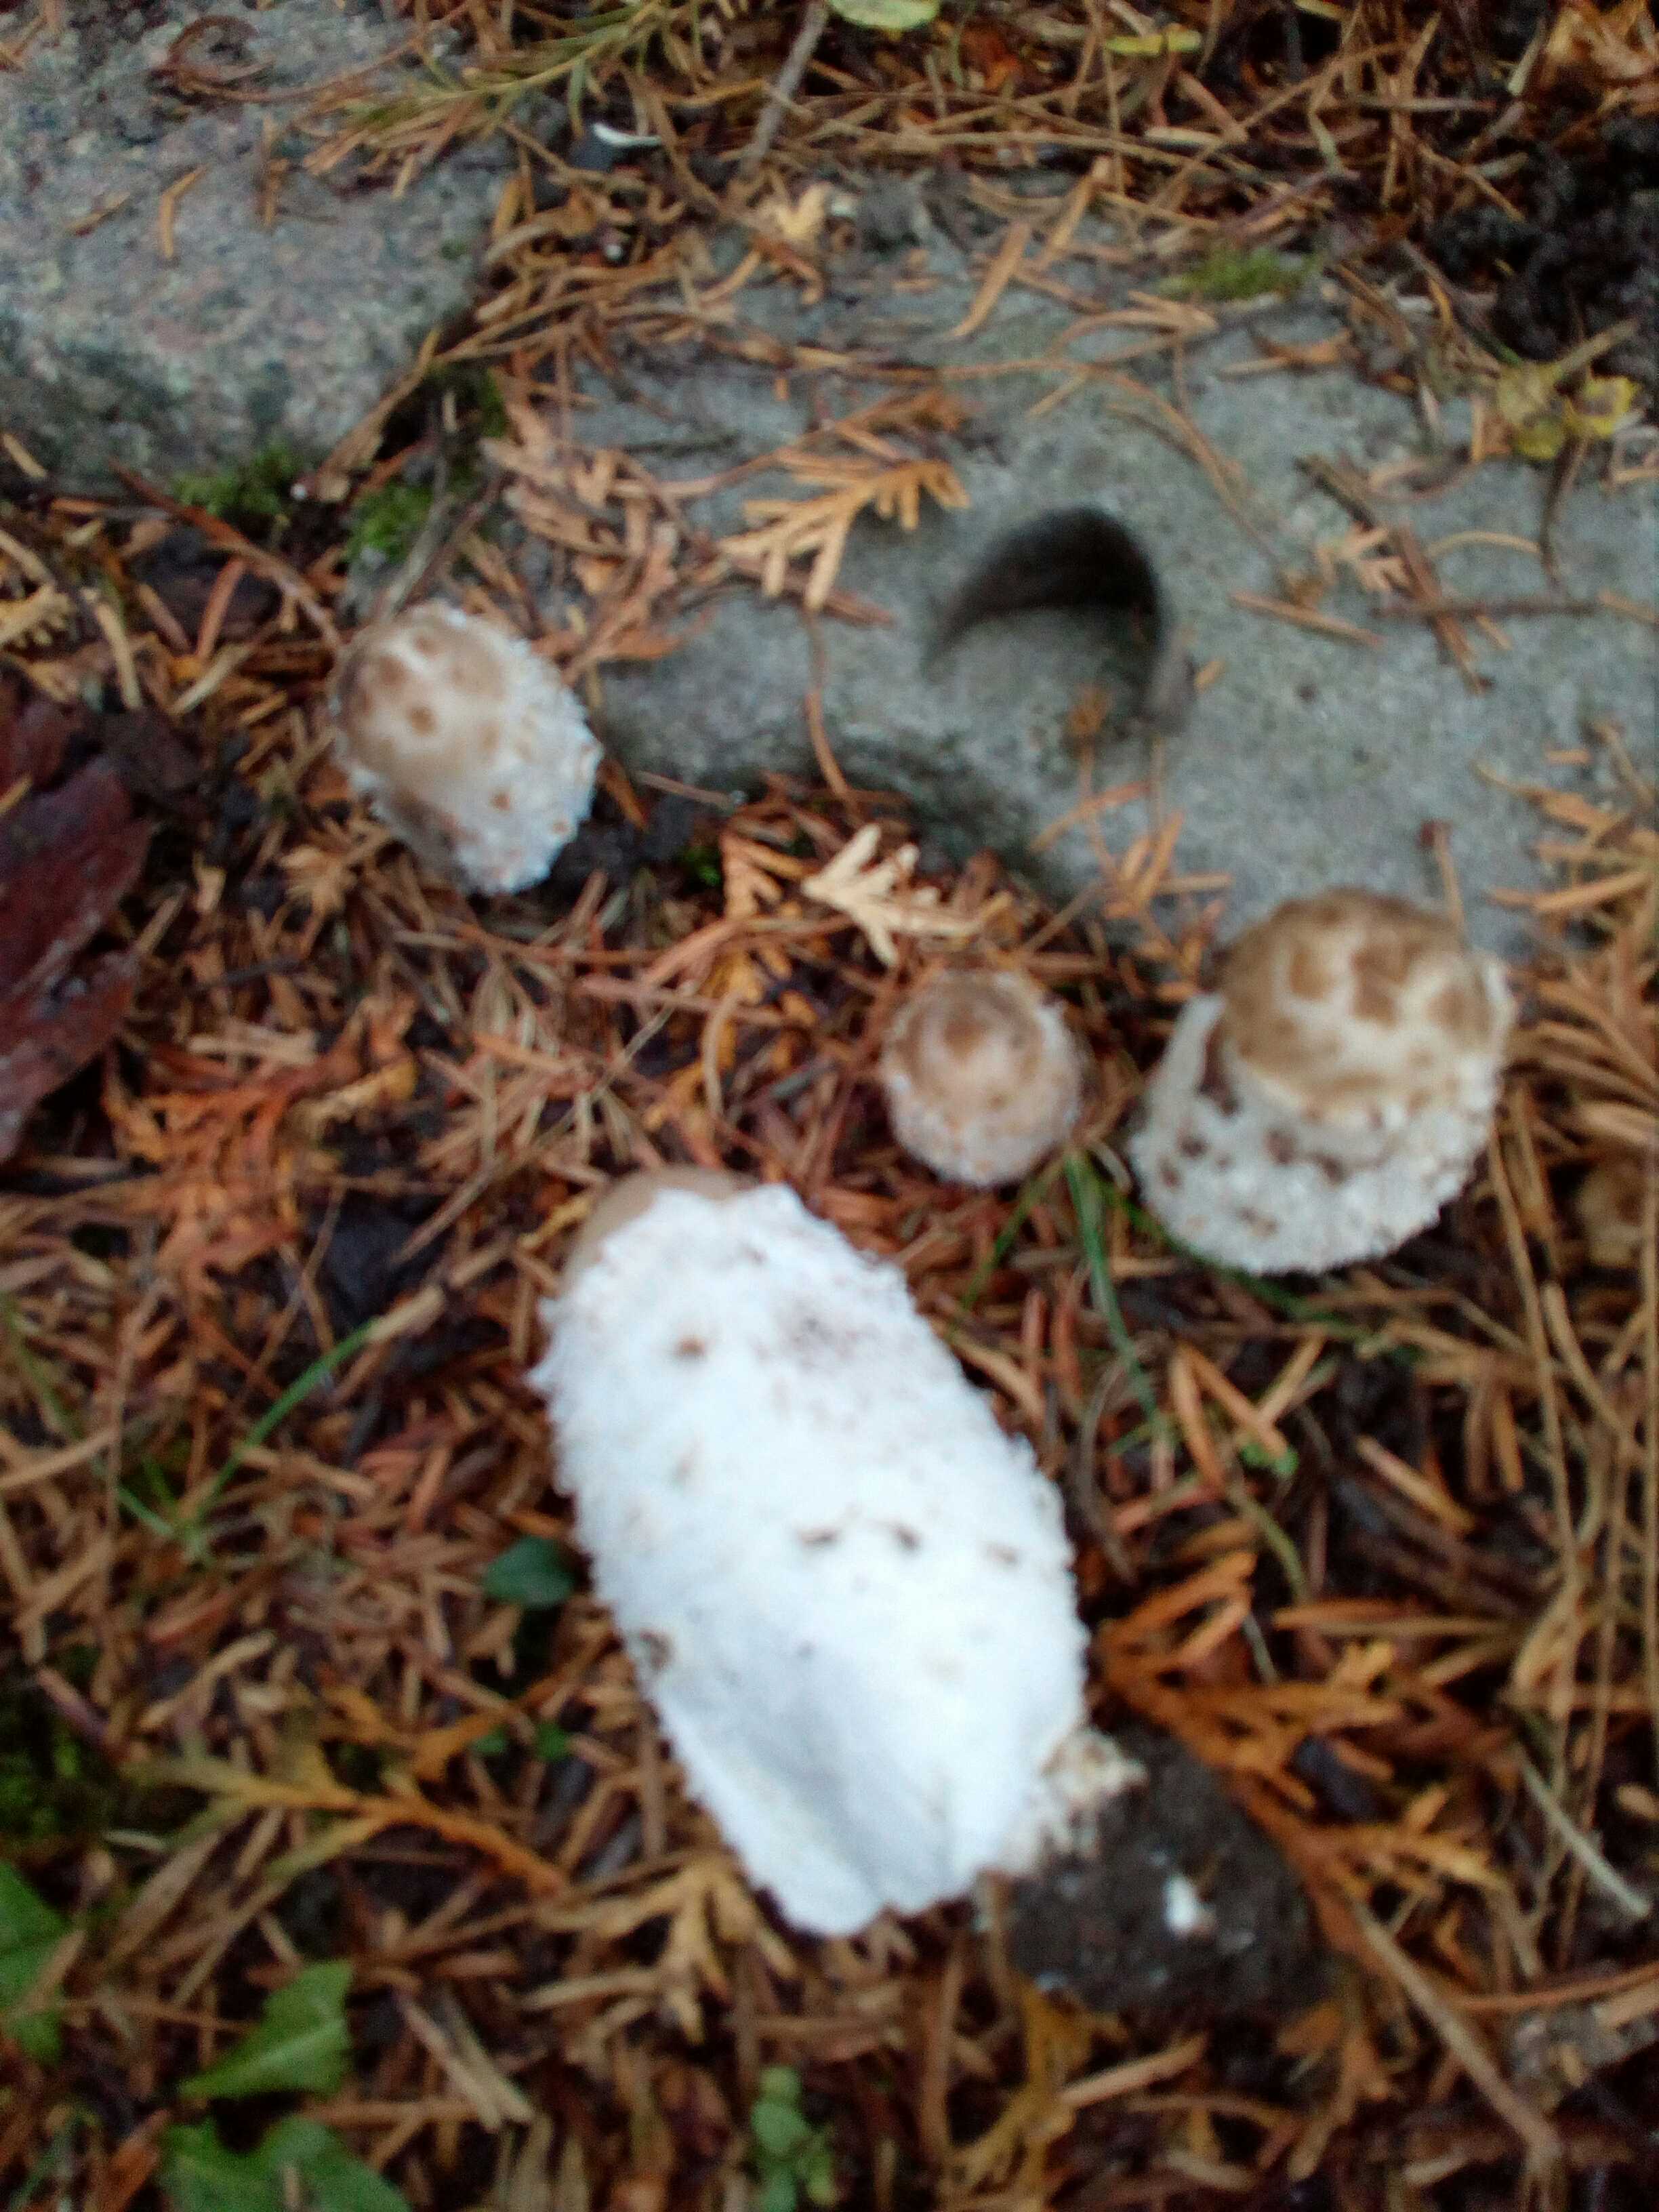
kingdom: Fungi
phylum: Basidiomycota
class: Agaricomycetes
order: Agaricales
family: Agaricaceae
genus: Coprinus
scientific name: Coprinus comatus
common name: stor parykhat
